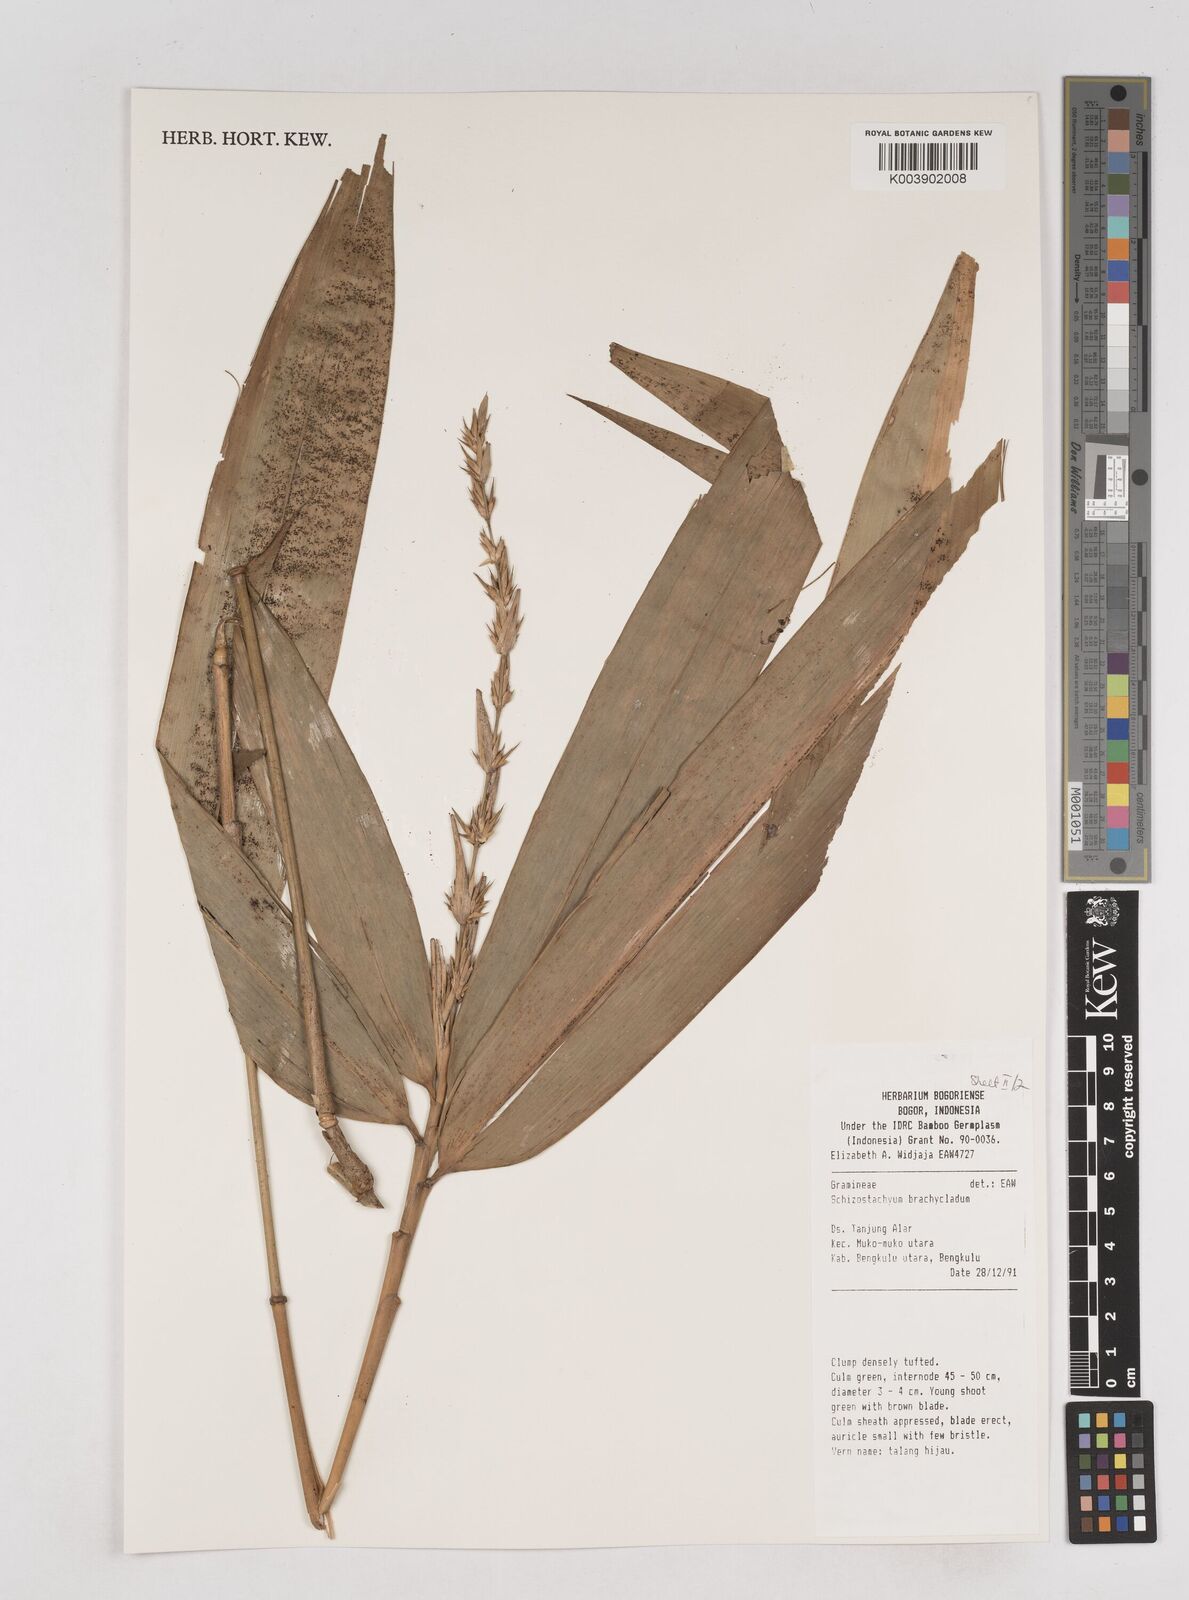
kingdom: Plantae
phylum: Tracheophyta
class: Liliopsida
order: Poales
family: Poaceae
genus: Schizostachyum
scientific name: Schizostachyum brachycladum
